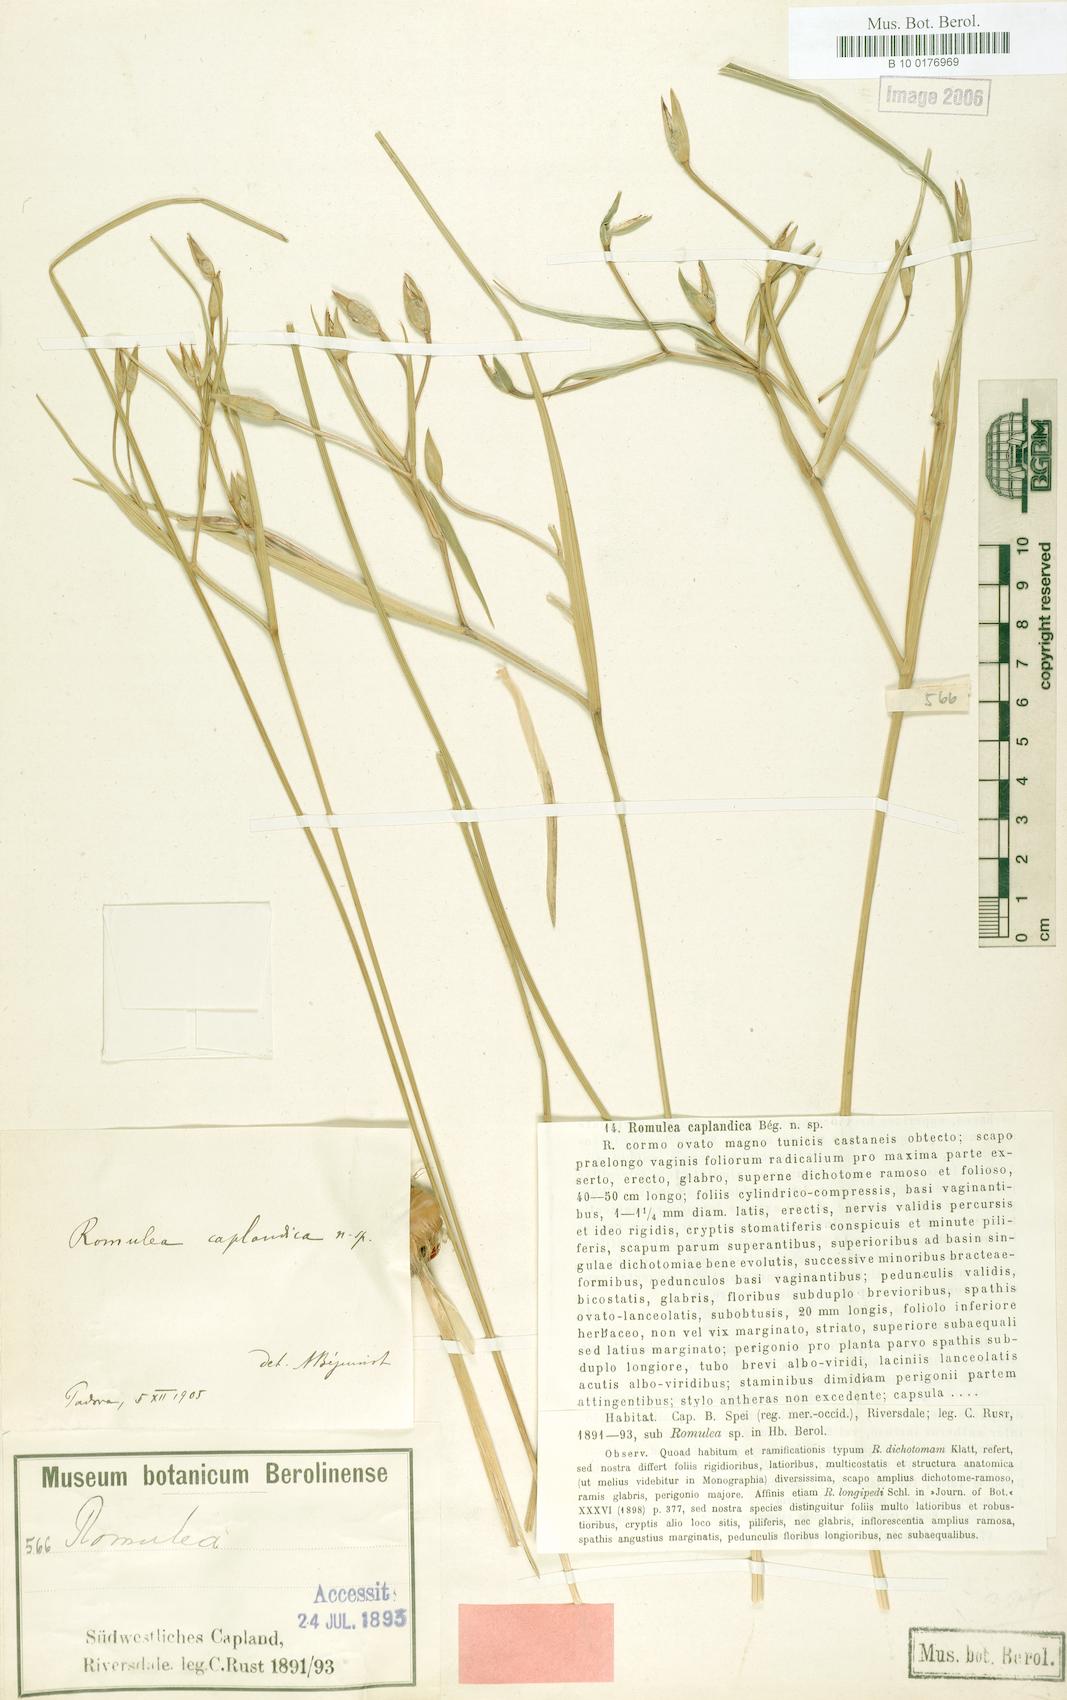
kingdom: Plantae
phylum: Tracheophyta
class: Liliopsida
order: Asparagales
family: Iridaceae
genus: Romulea
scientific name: Romulea dichotoma
